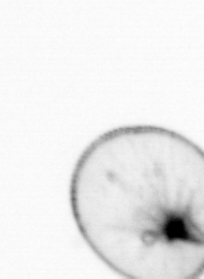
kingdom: Chromista
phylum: Myzozoa
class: Dinophyceae
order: Noctilucales
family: Noctilucaceae
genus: Noctiluca
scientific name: Noctiluca scintillans
